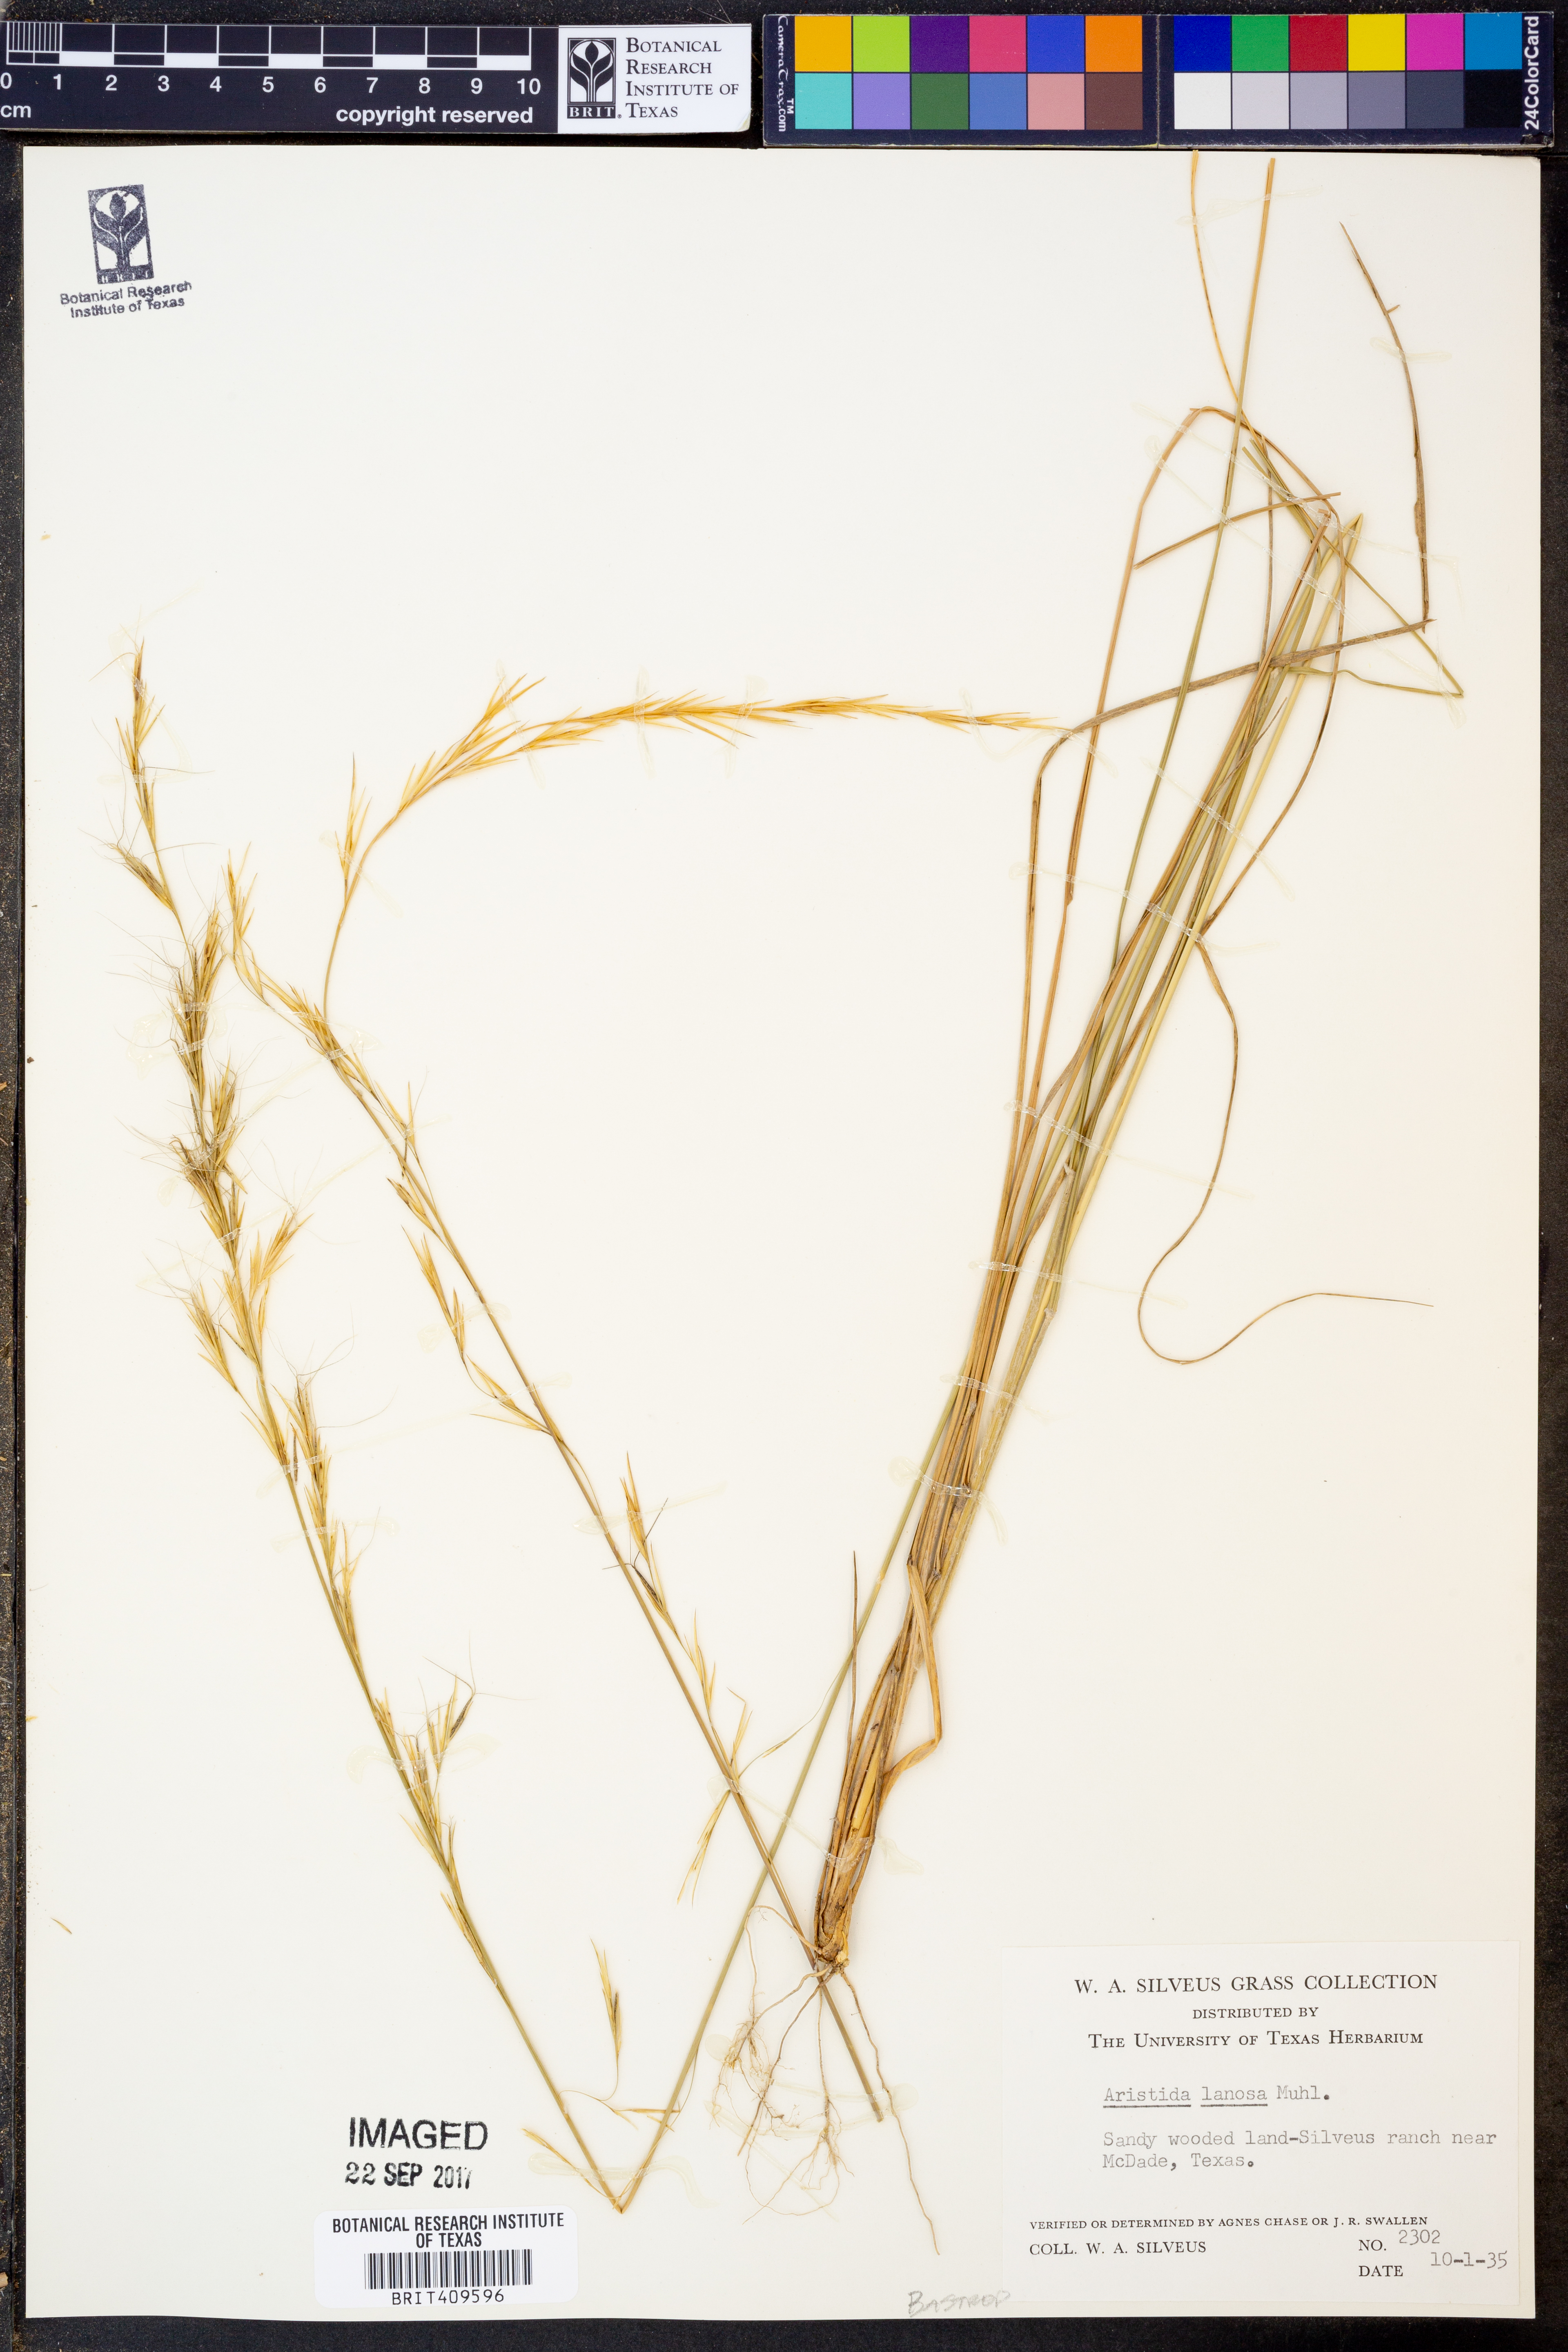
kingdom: Plantae
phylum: Tracheophyta
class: Liliopsida
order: Poales
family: Poaceae
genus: Aristida
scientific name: Aristida lanosa
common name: Woolly three-awn
